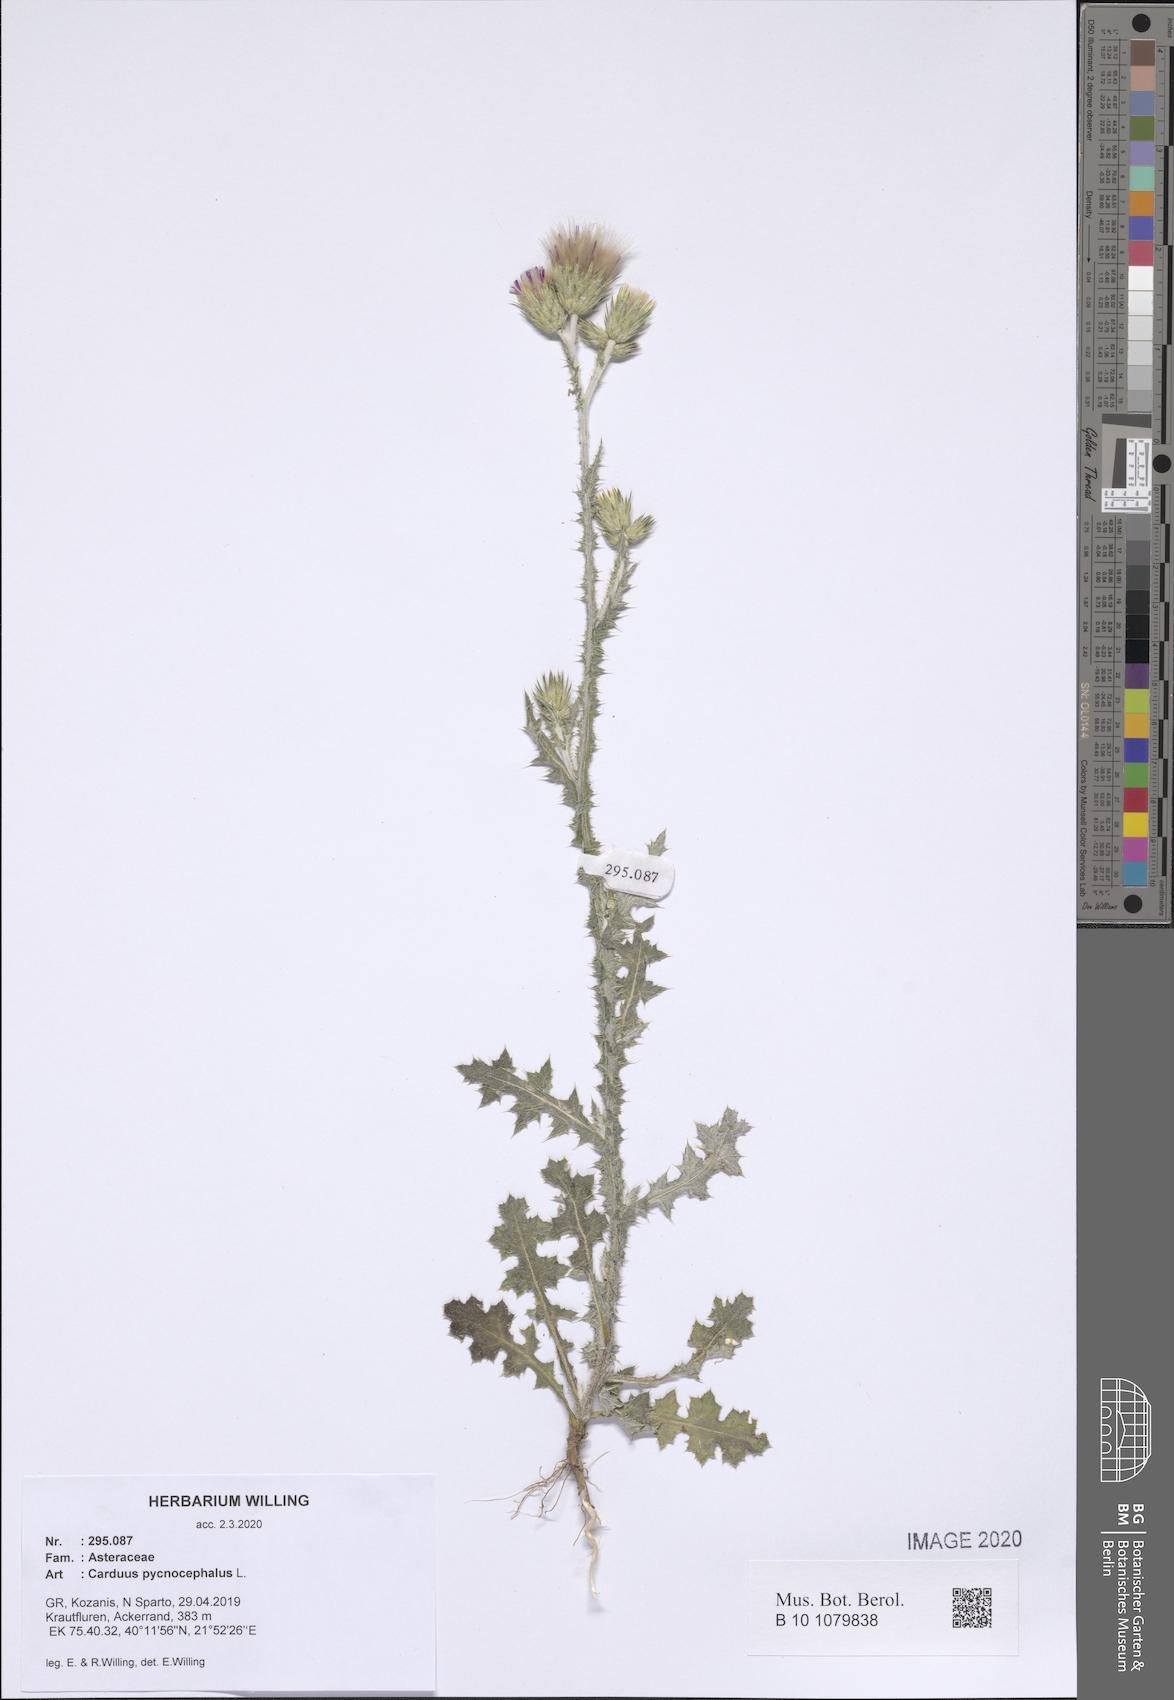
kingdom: Plantae
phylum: Tracheophyta
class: Magnoliopsida
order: Asterales
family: Asteraceae
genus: Carduus
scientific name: Carduus pycnocephalus
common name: Plymouth thistle
